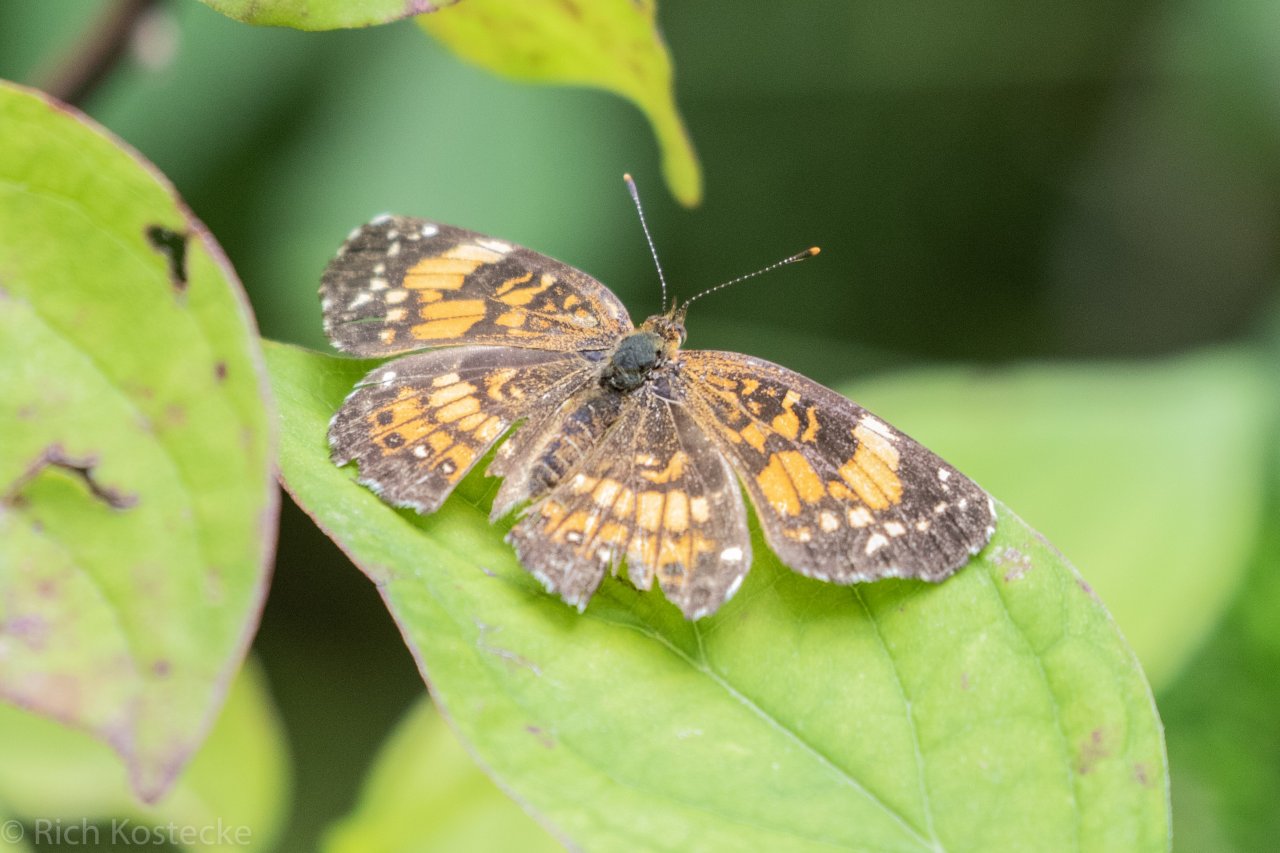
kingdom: Animalia
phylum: Arthropoda
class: Insecta
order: Lepidoptera
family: Nymphalidae
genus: Chlosyne
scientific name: Chlosyne nycteis
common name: Silvery Checkerspot
